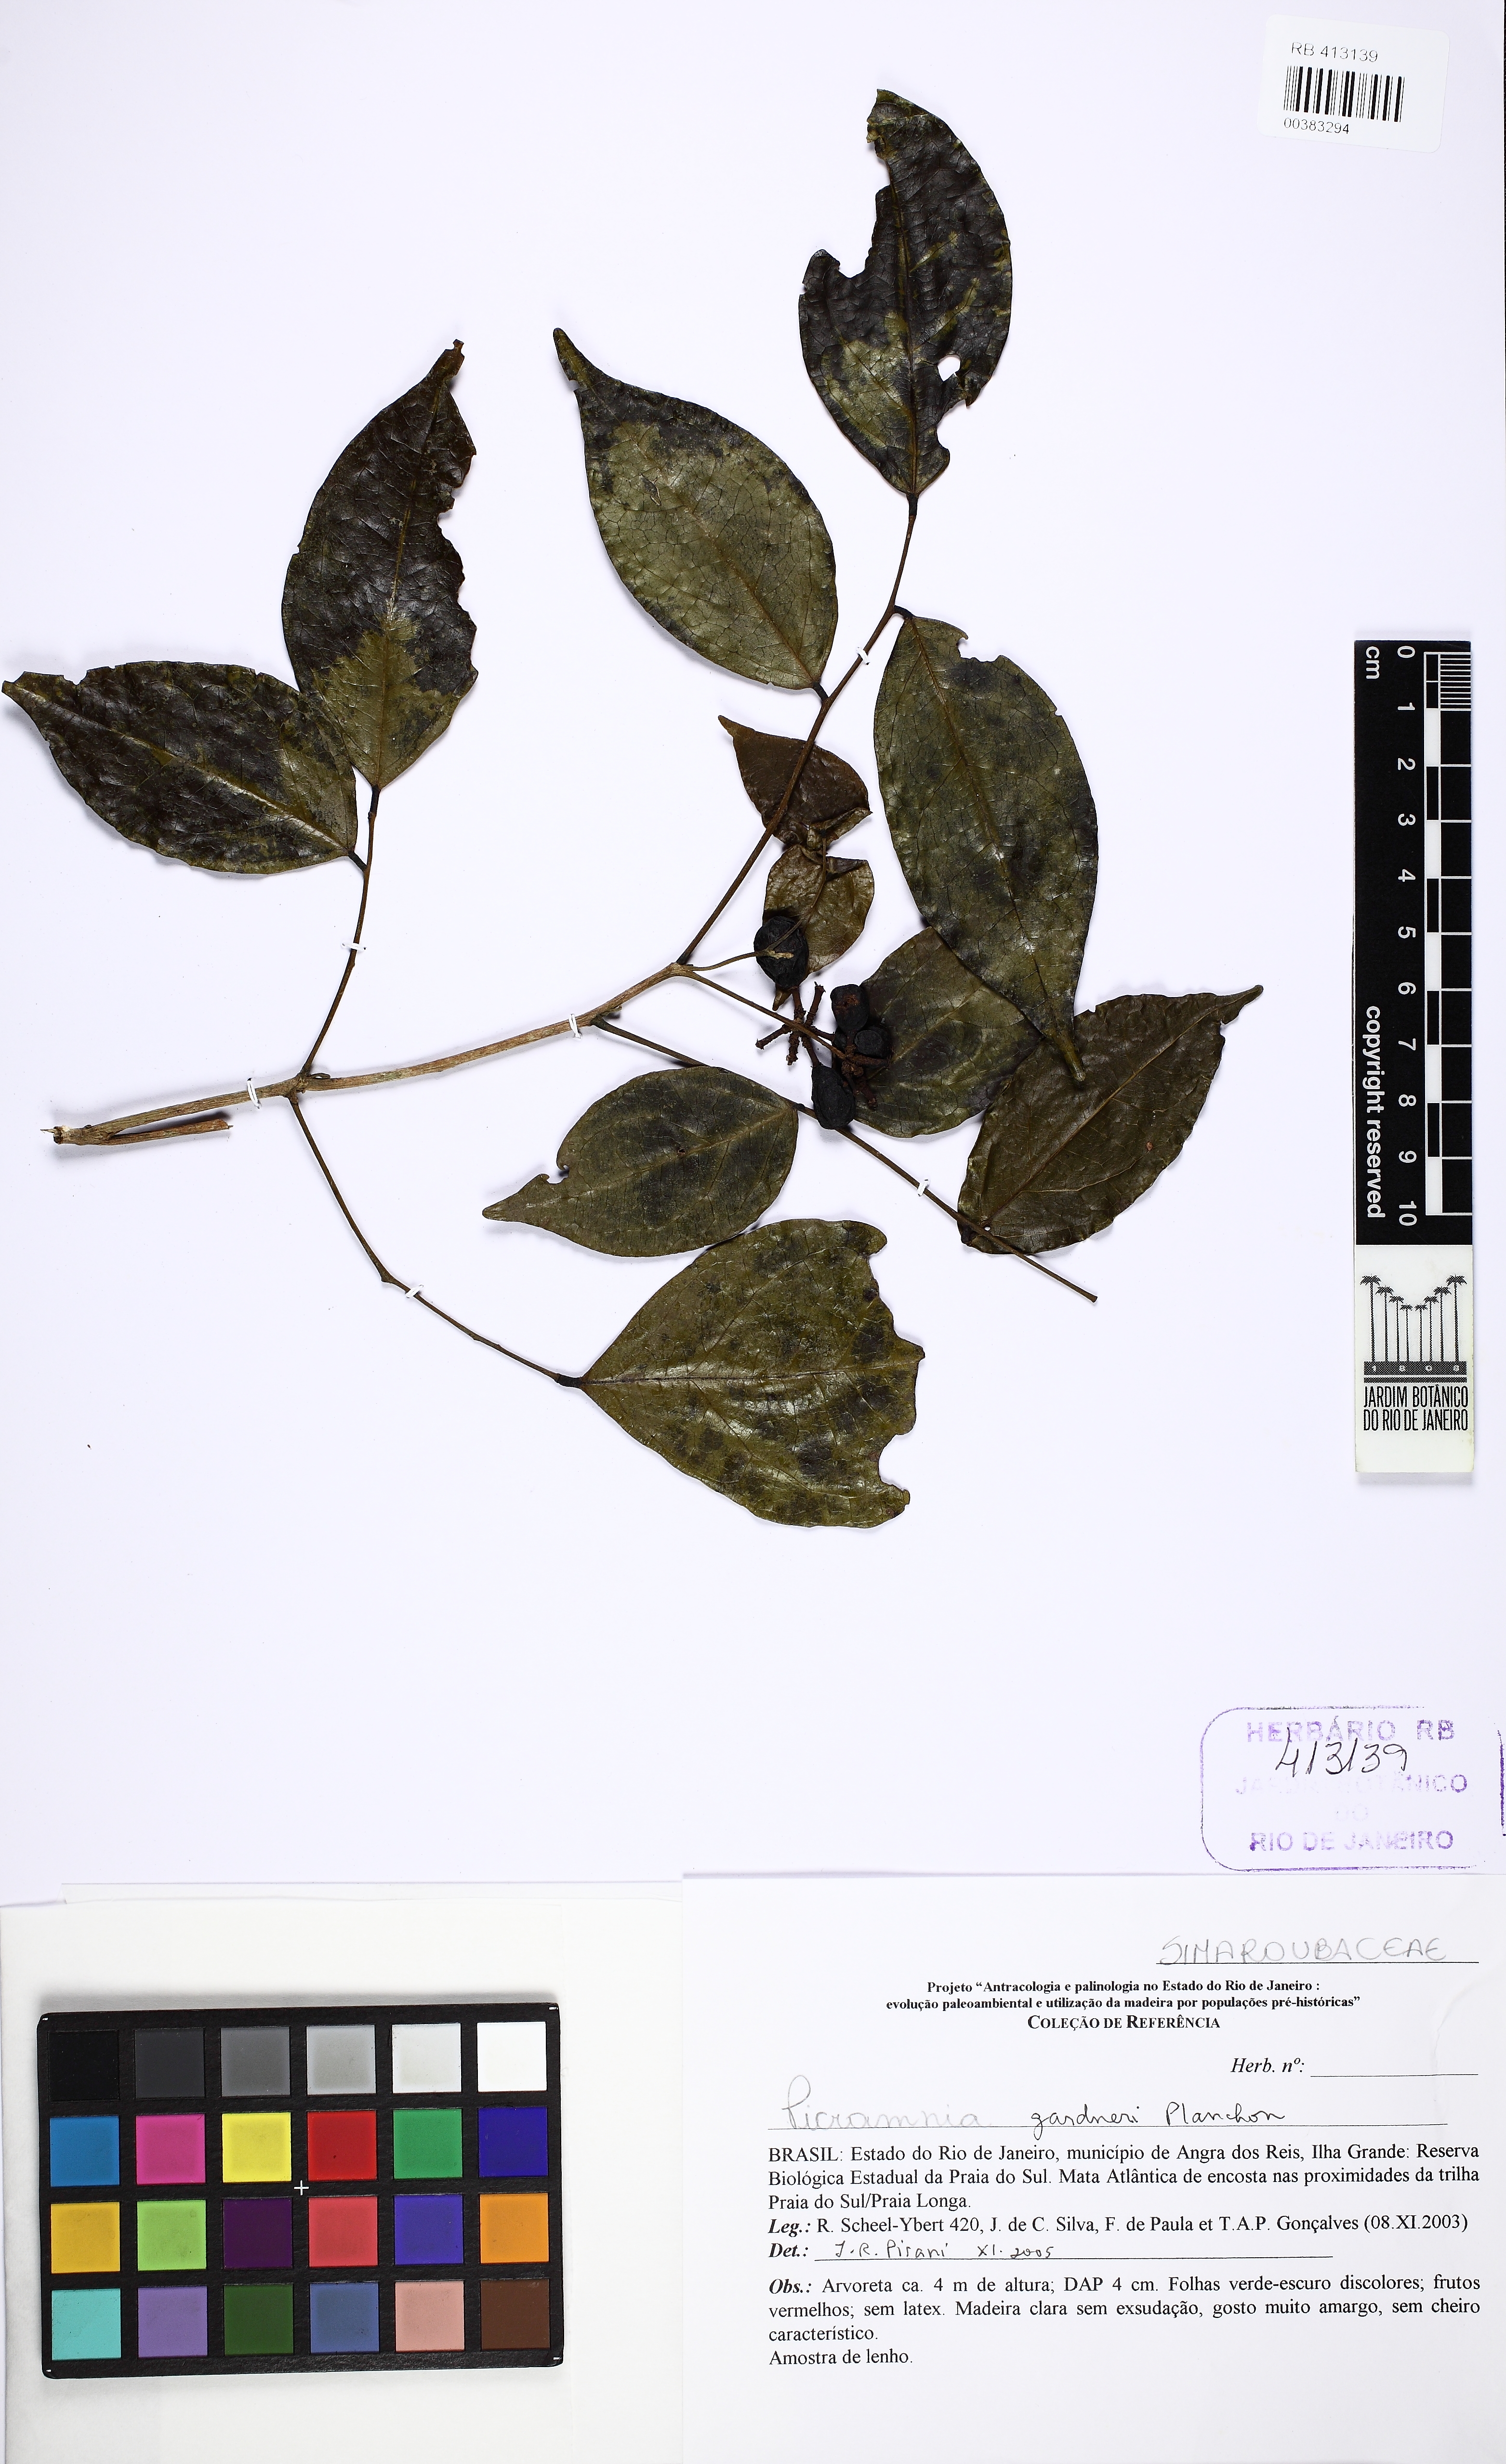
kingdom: Plantae
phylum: Tracheophyta
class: Magnoliopsida
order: Picramniales
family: Picramniaceae
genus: Picramnia
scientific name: Picramnia gardneri
